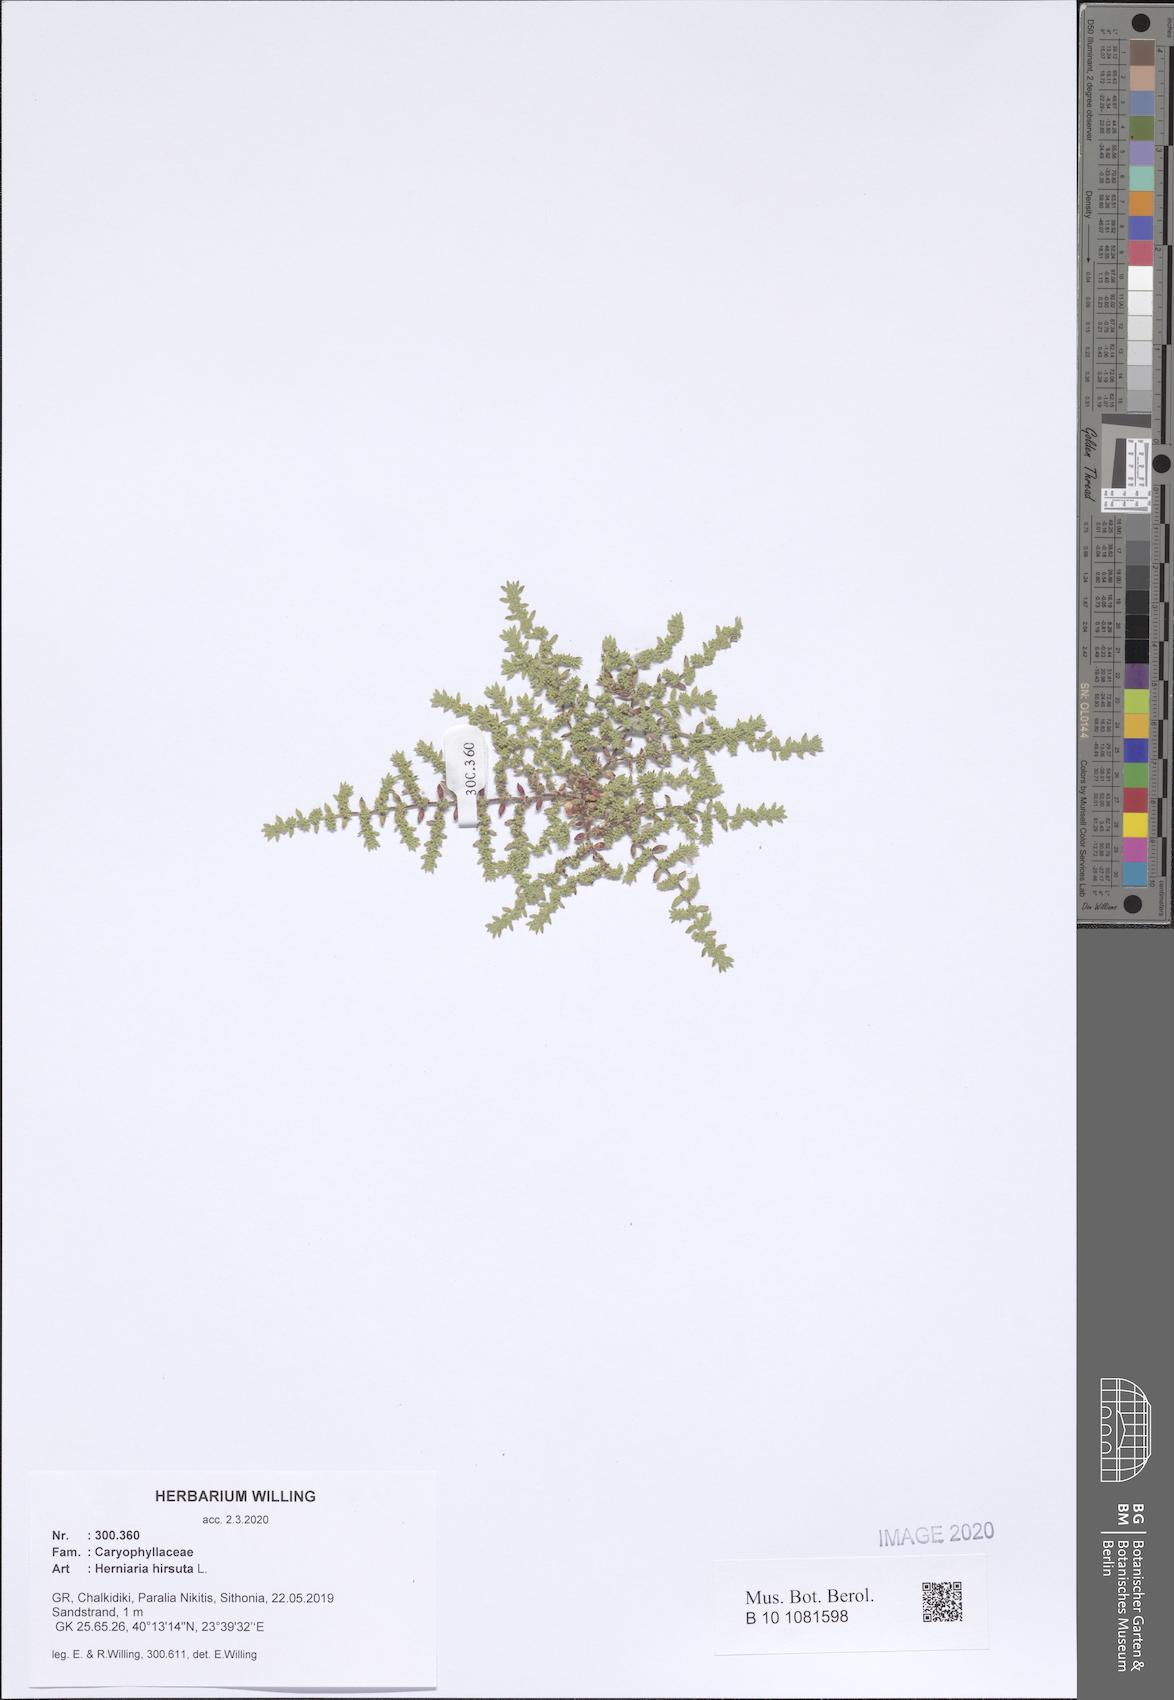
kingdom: Plantae
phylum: Tracheophyta
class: Magnoliopsida
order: Caryophyllales
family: Caryophyllaceae
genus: Herniaria
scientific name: Herniaria hirsuta
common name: Hairy rupturewort
